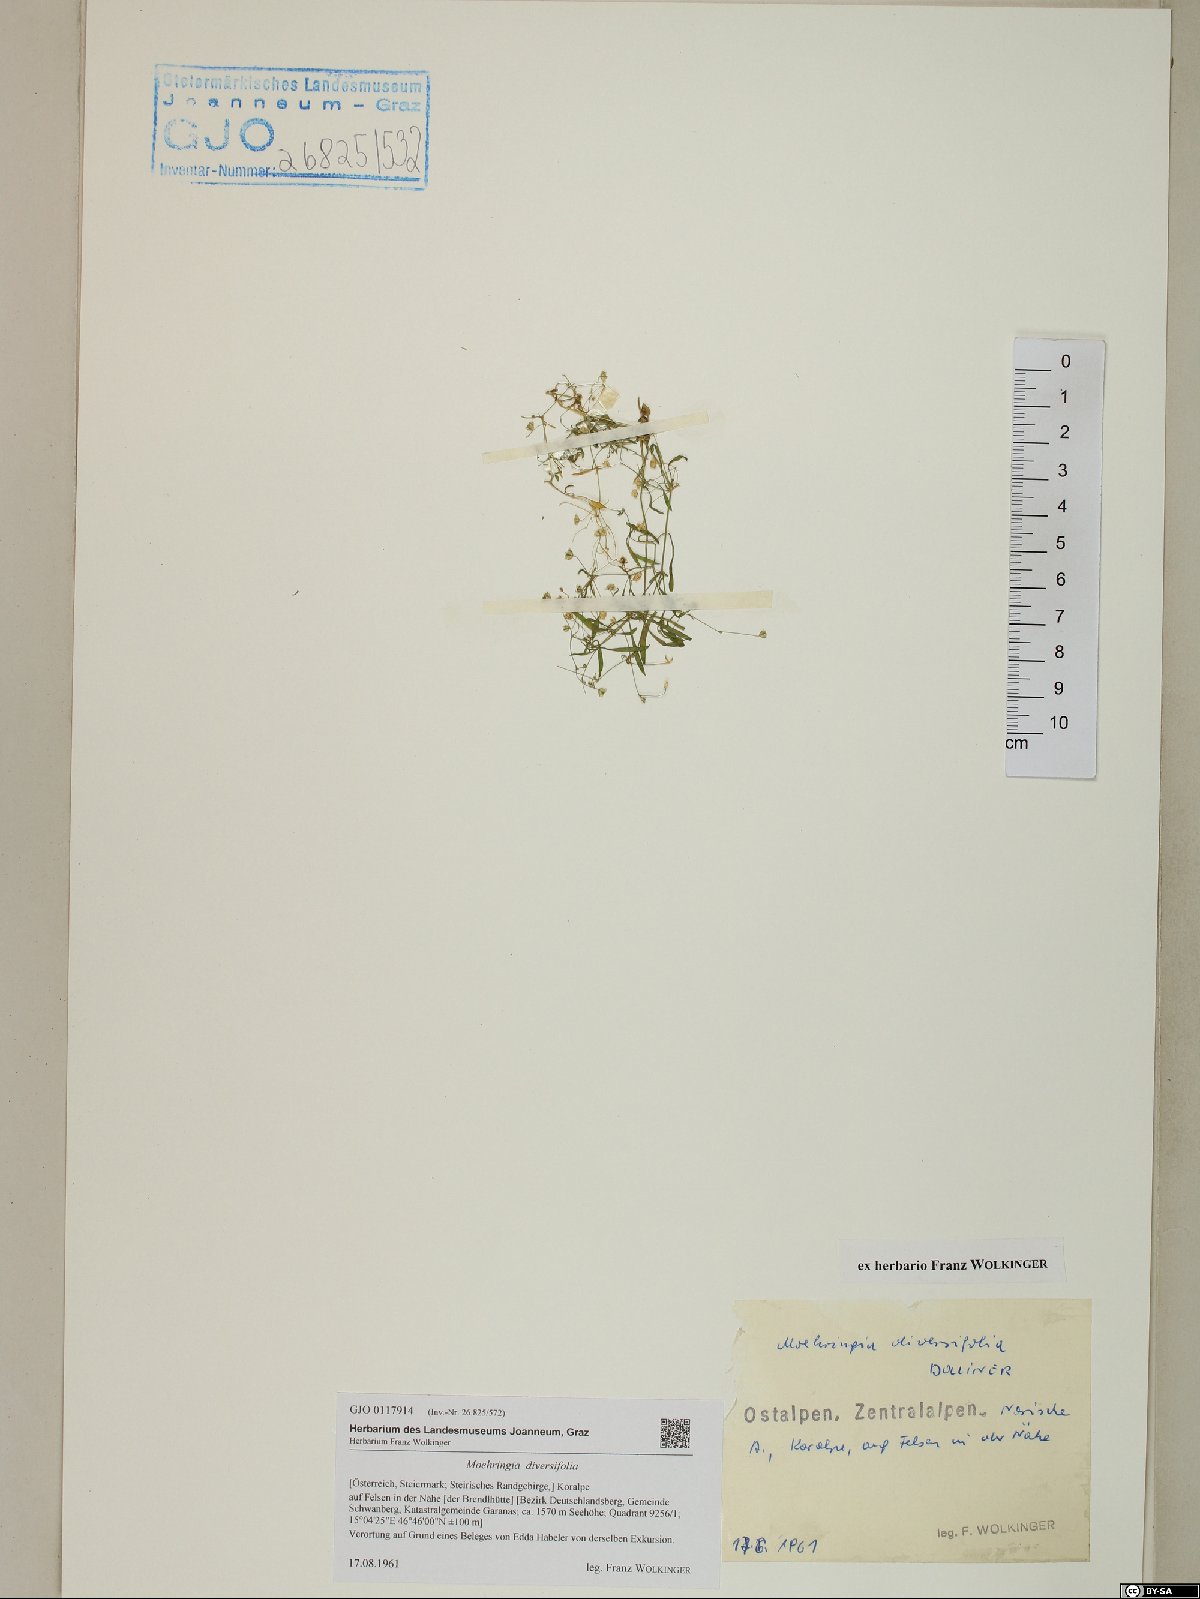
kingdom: Plantae
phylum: Tracheophyta
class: Magnoliopsida
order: Caryophyllales
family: Caryophyllaceae
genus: Moehringia
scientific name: Moehringia diversifolia
